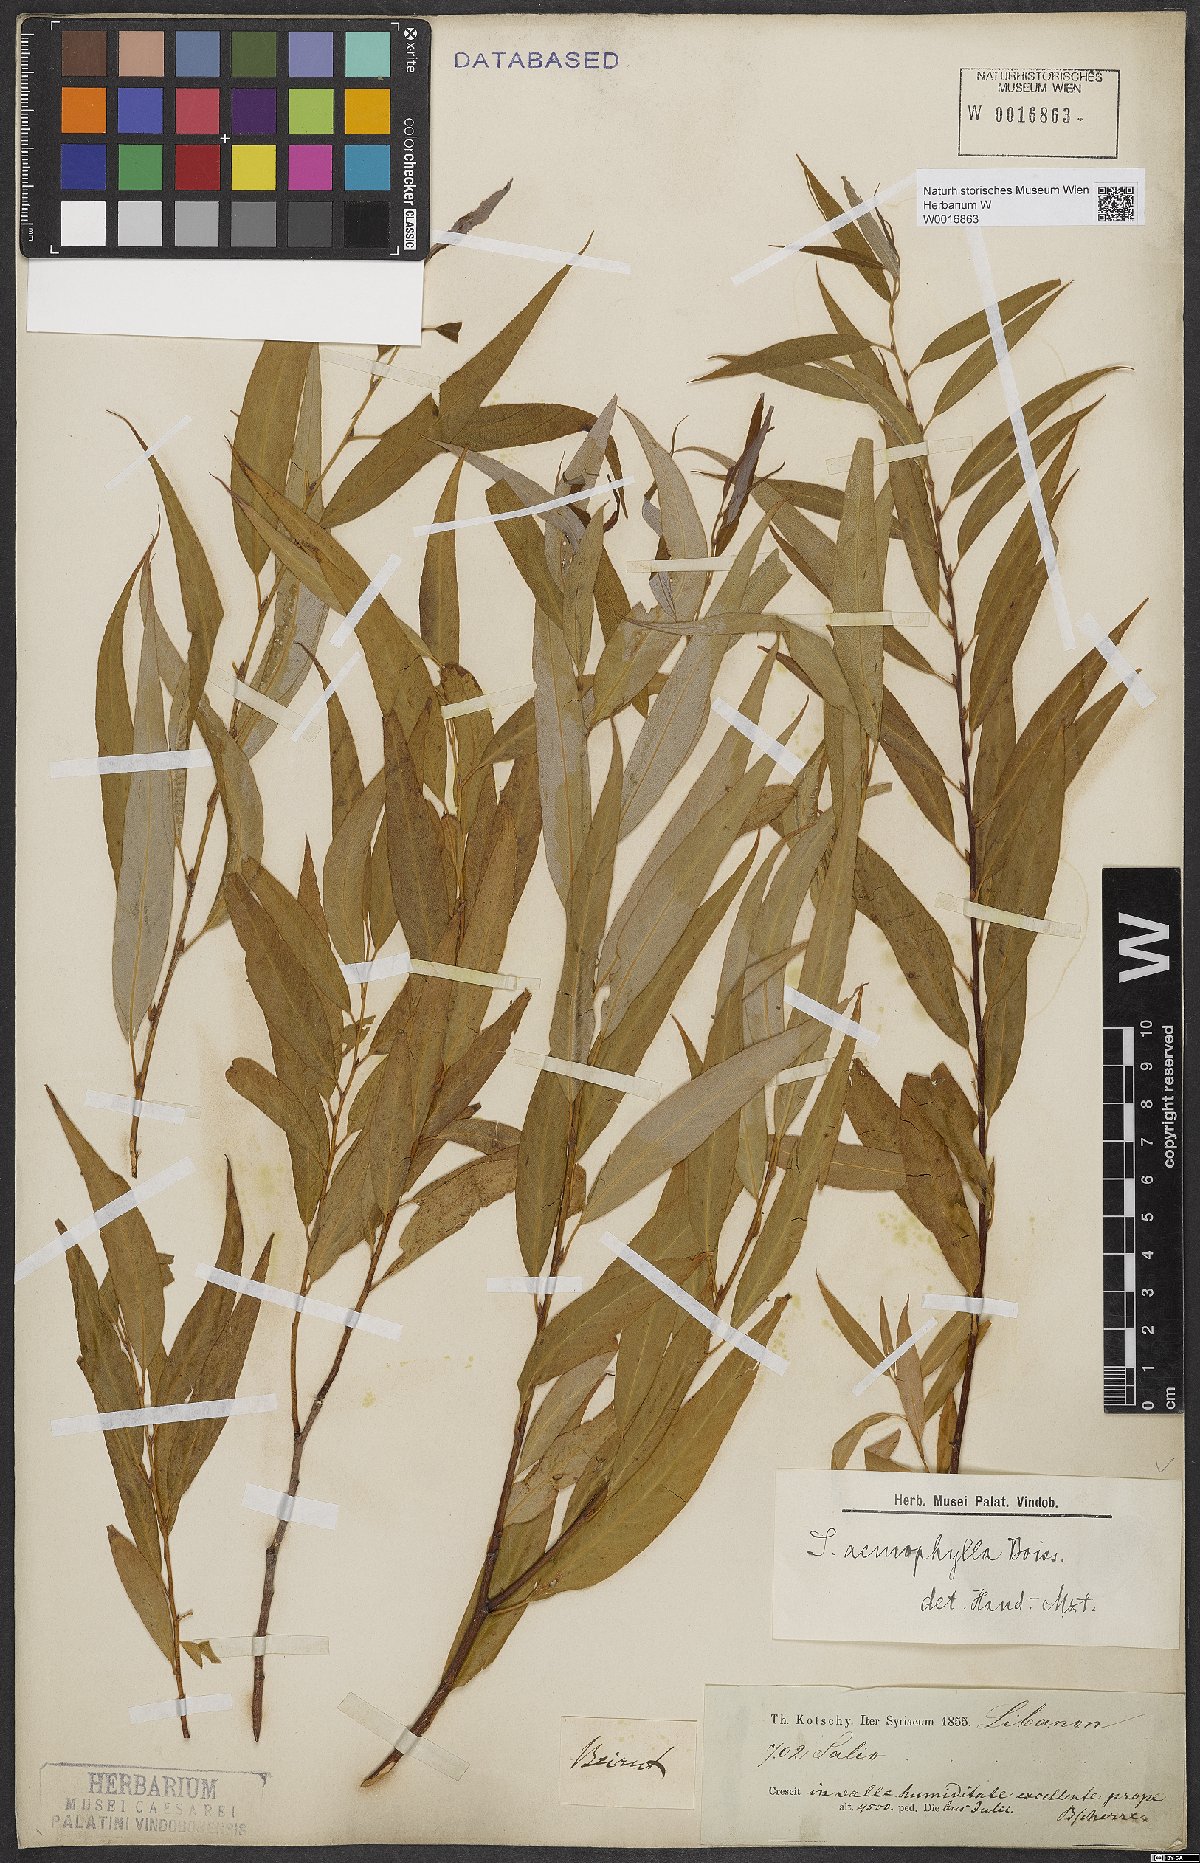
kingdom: Plantae
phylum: Tracheophyta
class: Magnoliopsida
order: Malpighiales
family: Salicaceae
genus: Salix
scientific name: Salix acmophylla
